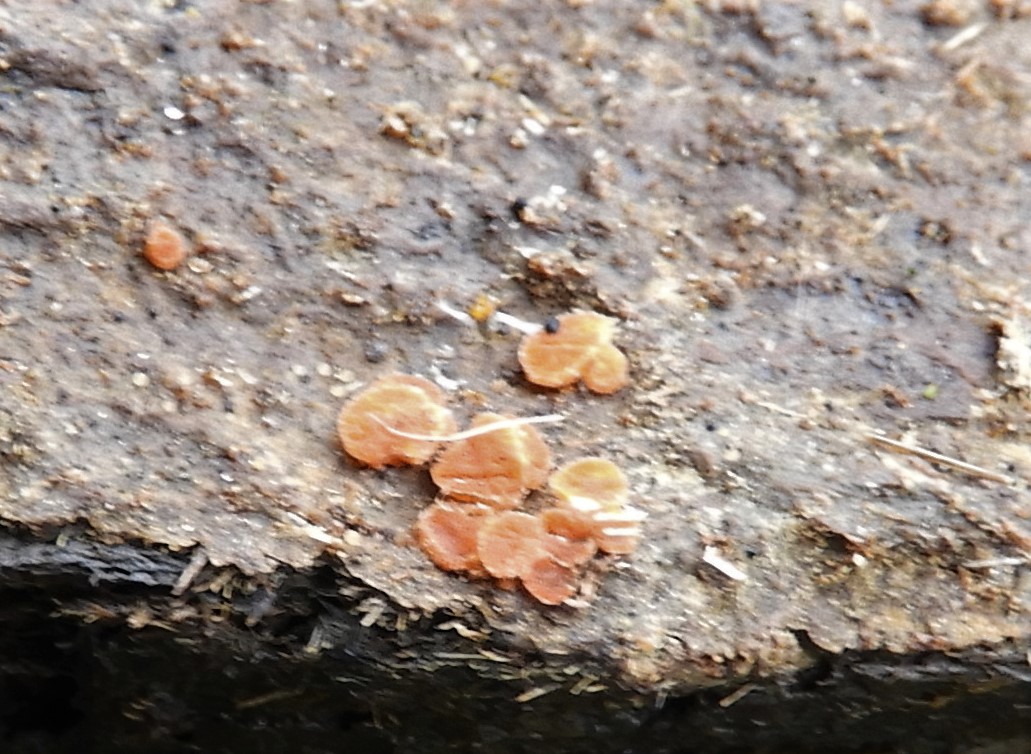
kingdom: Fungi
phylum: Ascomycota
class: Pezizomycetes
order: Pezizales
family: Pyronemataceae
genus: Cheilymenia
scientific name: Cheilymenia granulata
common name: møgbæger
